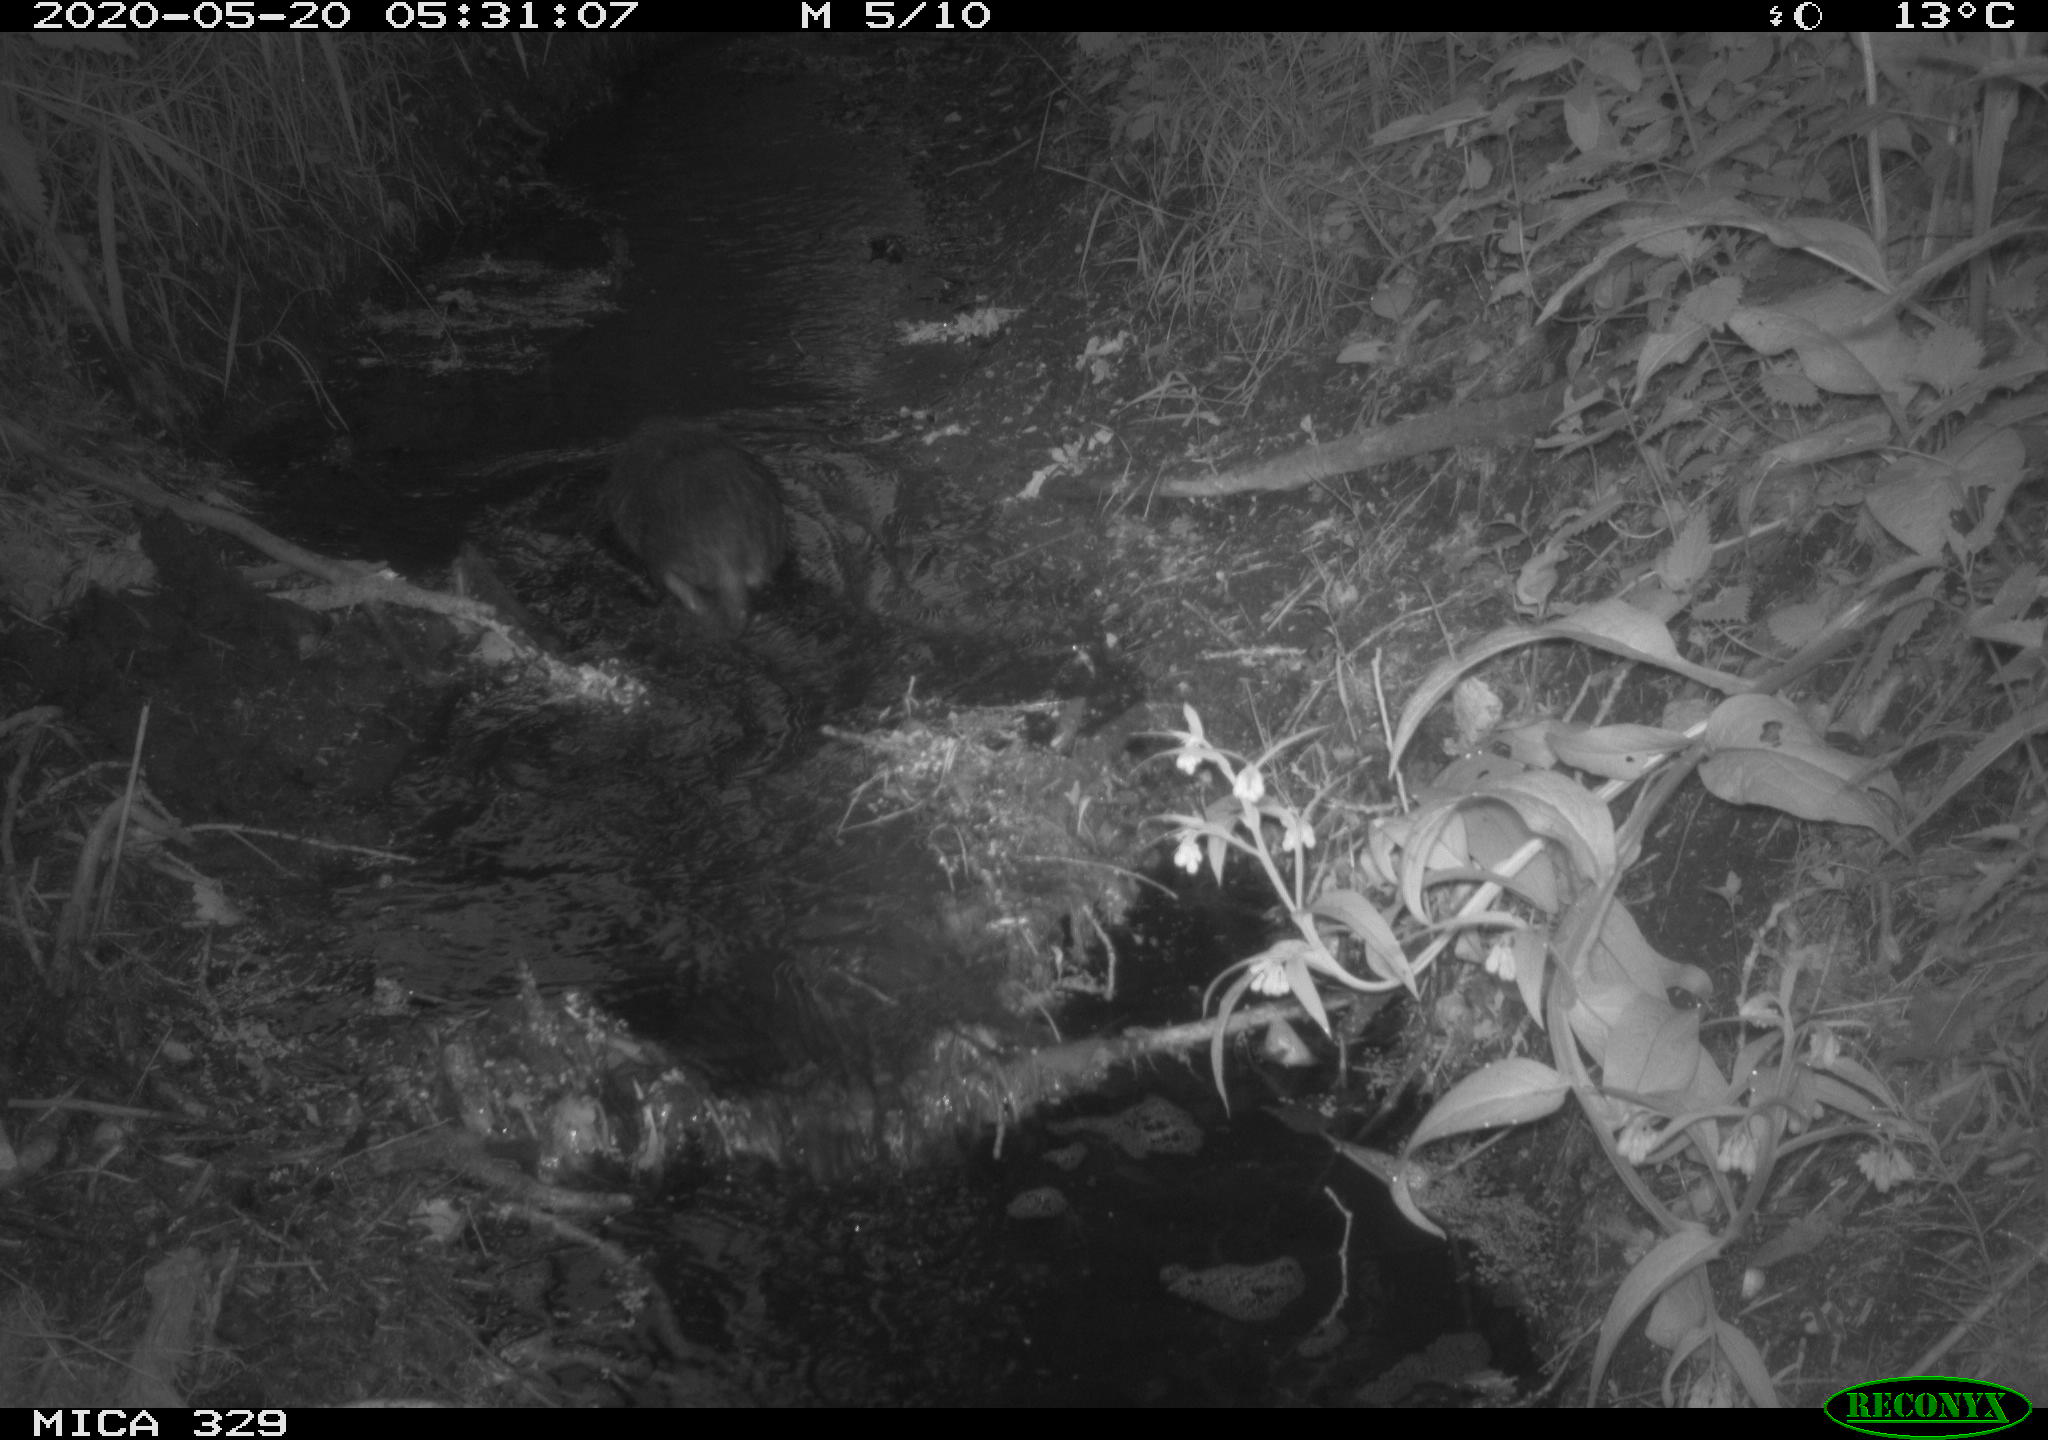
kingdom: Animalia
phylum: Chordata
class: Mammalia
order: Rodentia
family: Myocastoridae
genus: Myocastor
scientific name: Myocastor coypus
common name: Coypu
